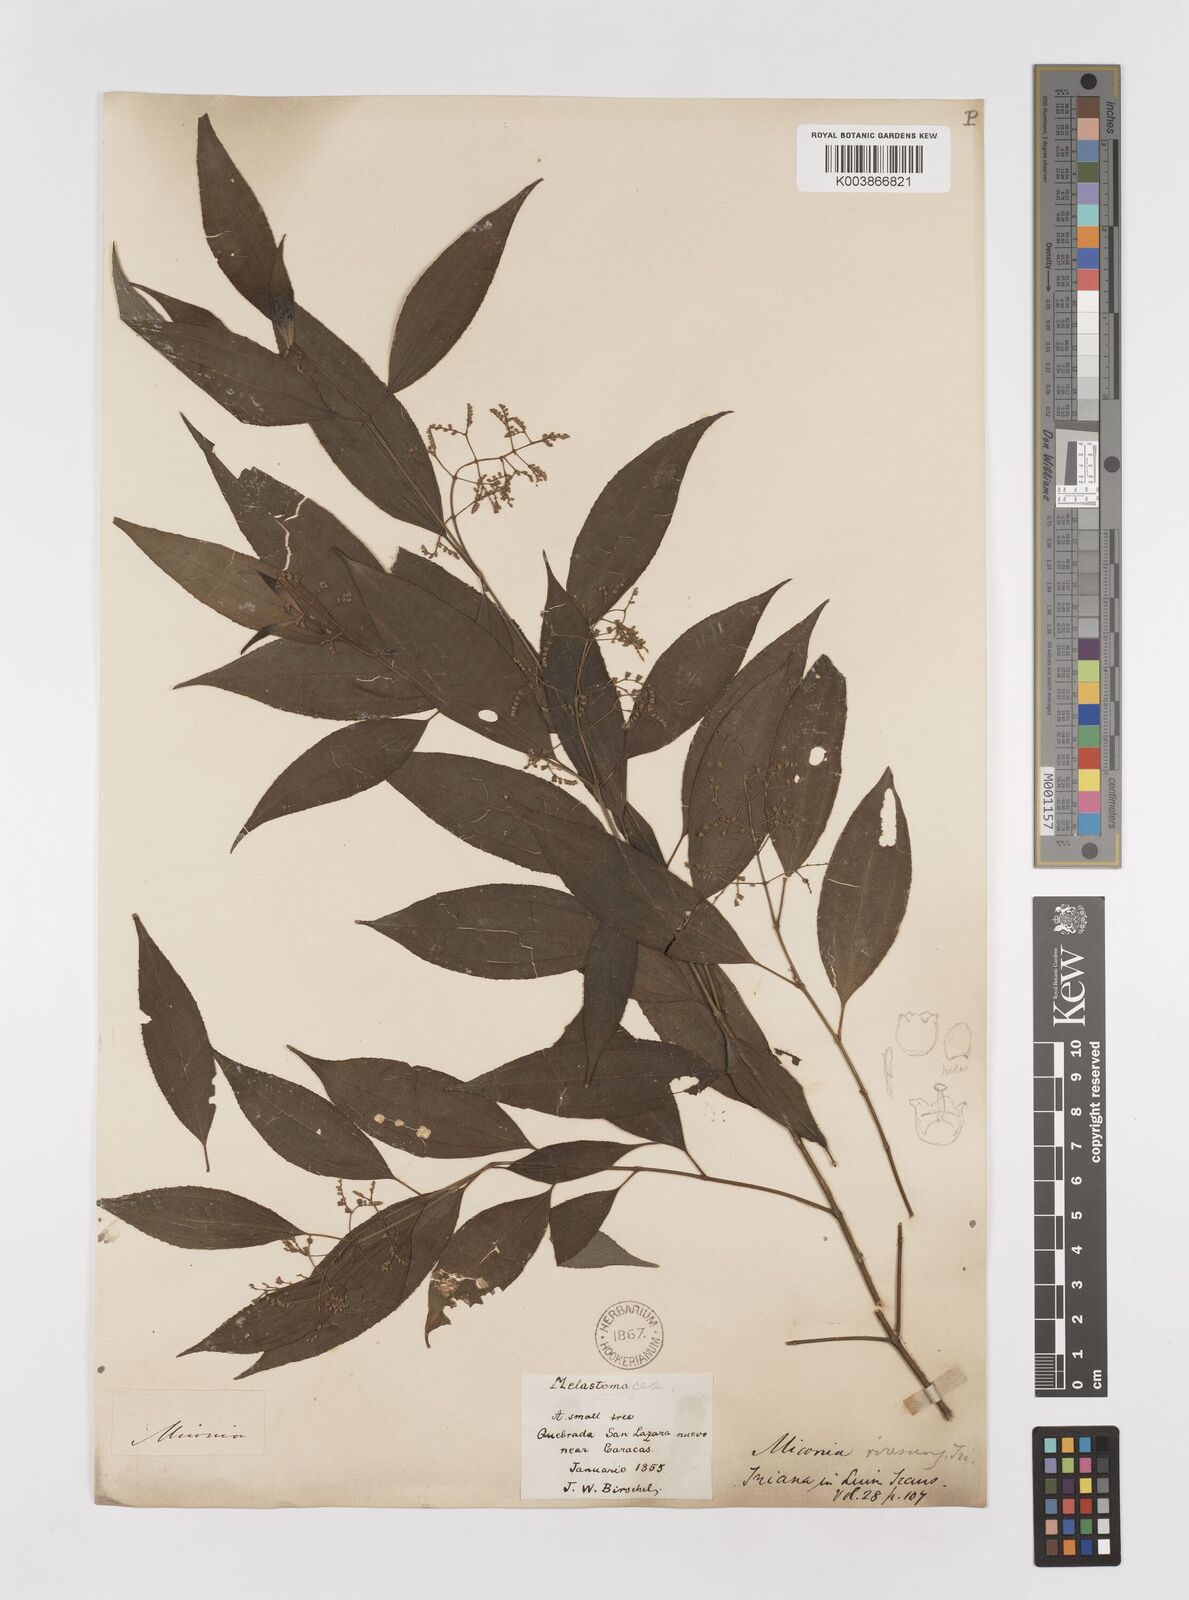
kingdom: Plantae
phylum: Tracheophyta
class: Magnoliopsida
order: Myrtales
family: Melastomataceae
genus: Miconia
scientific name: Miconia virescens
